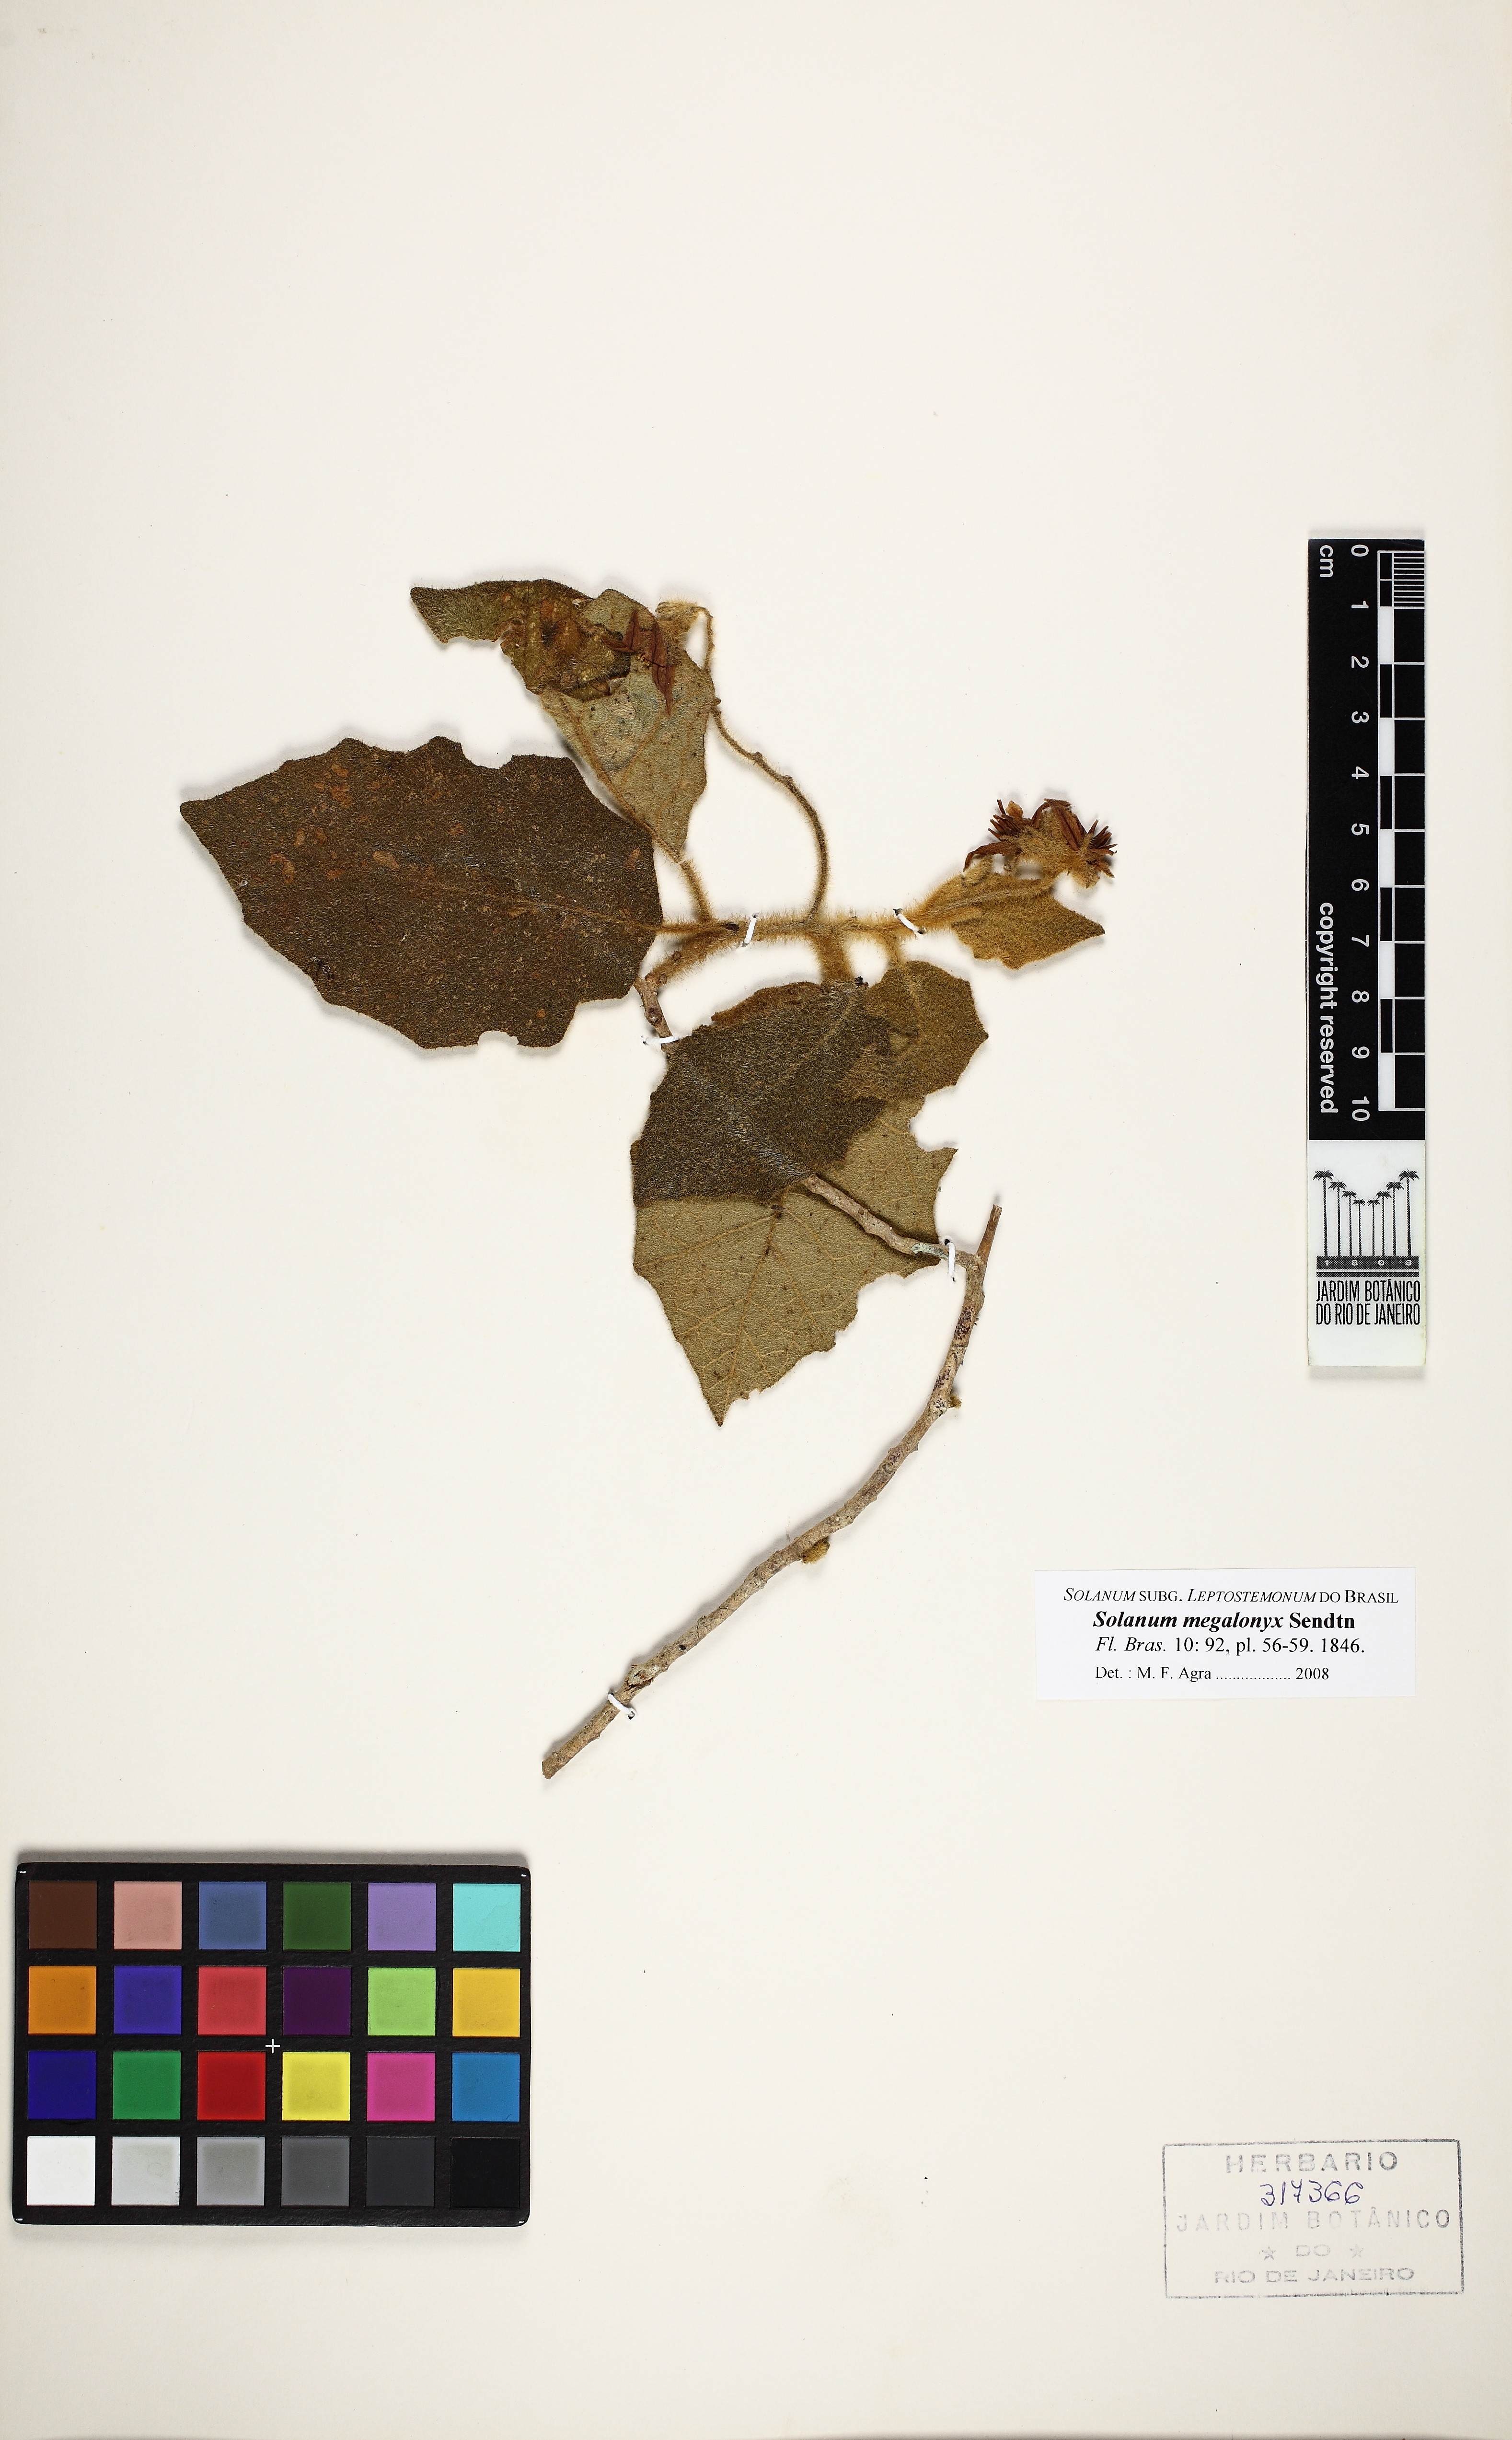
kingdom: Plantae
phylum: Tracheophyta
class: Magnoliopsida
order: Solanales
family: Solanaceae
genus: Solanum
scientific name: Solanum megalonyx
